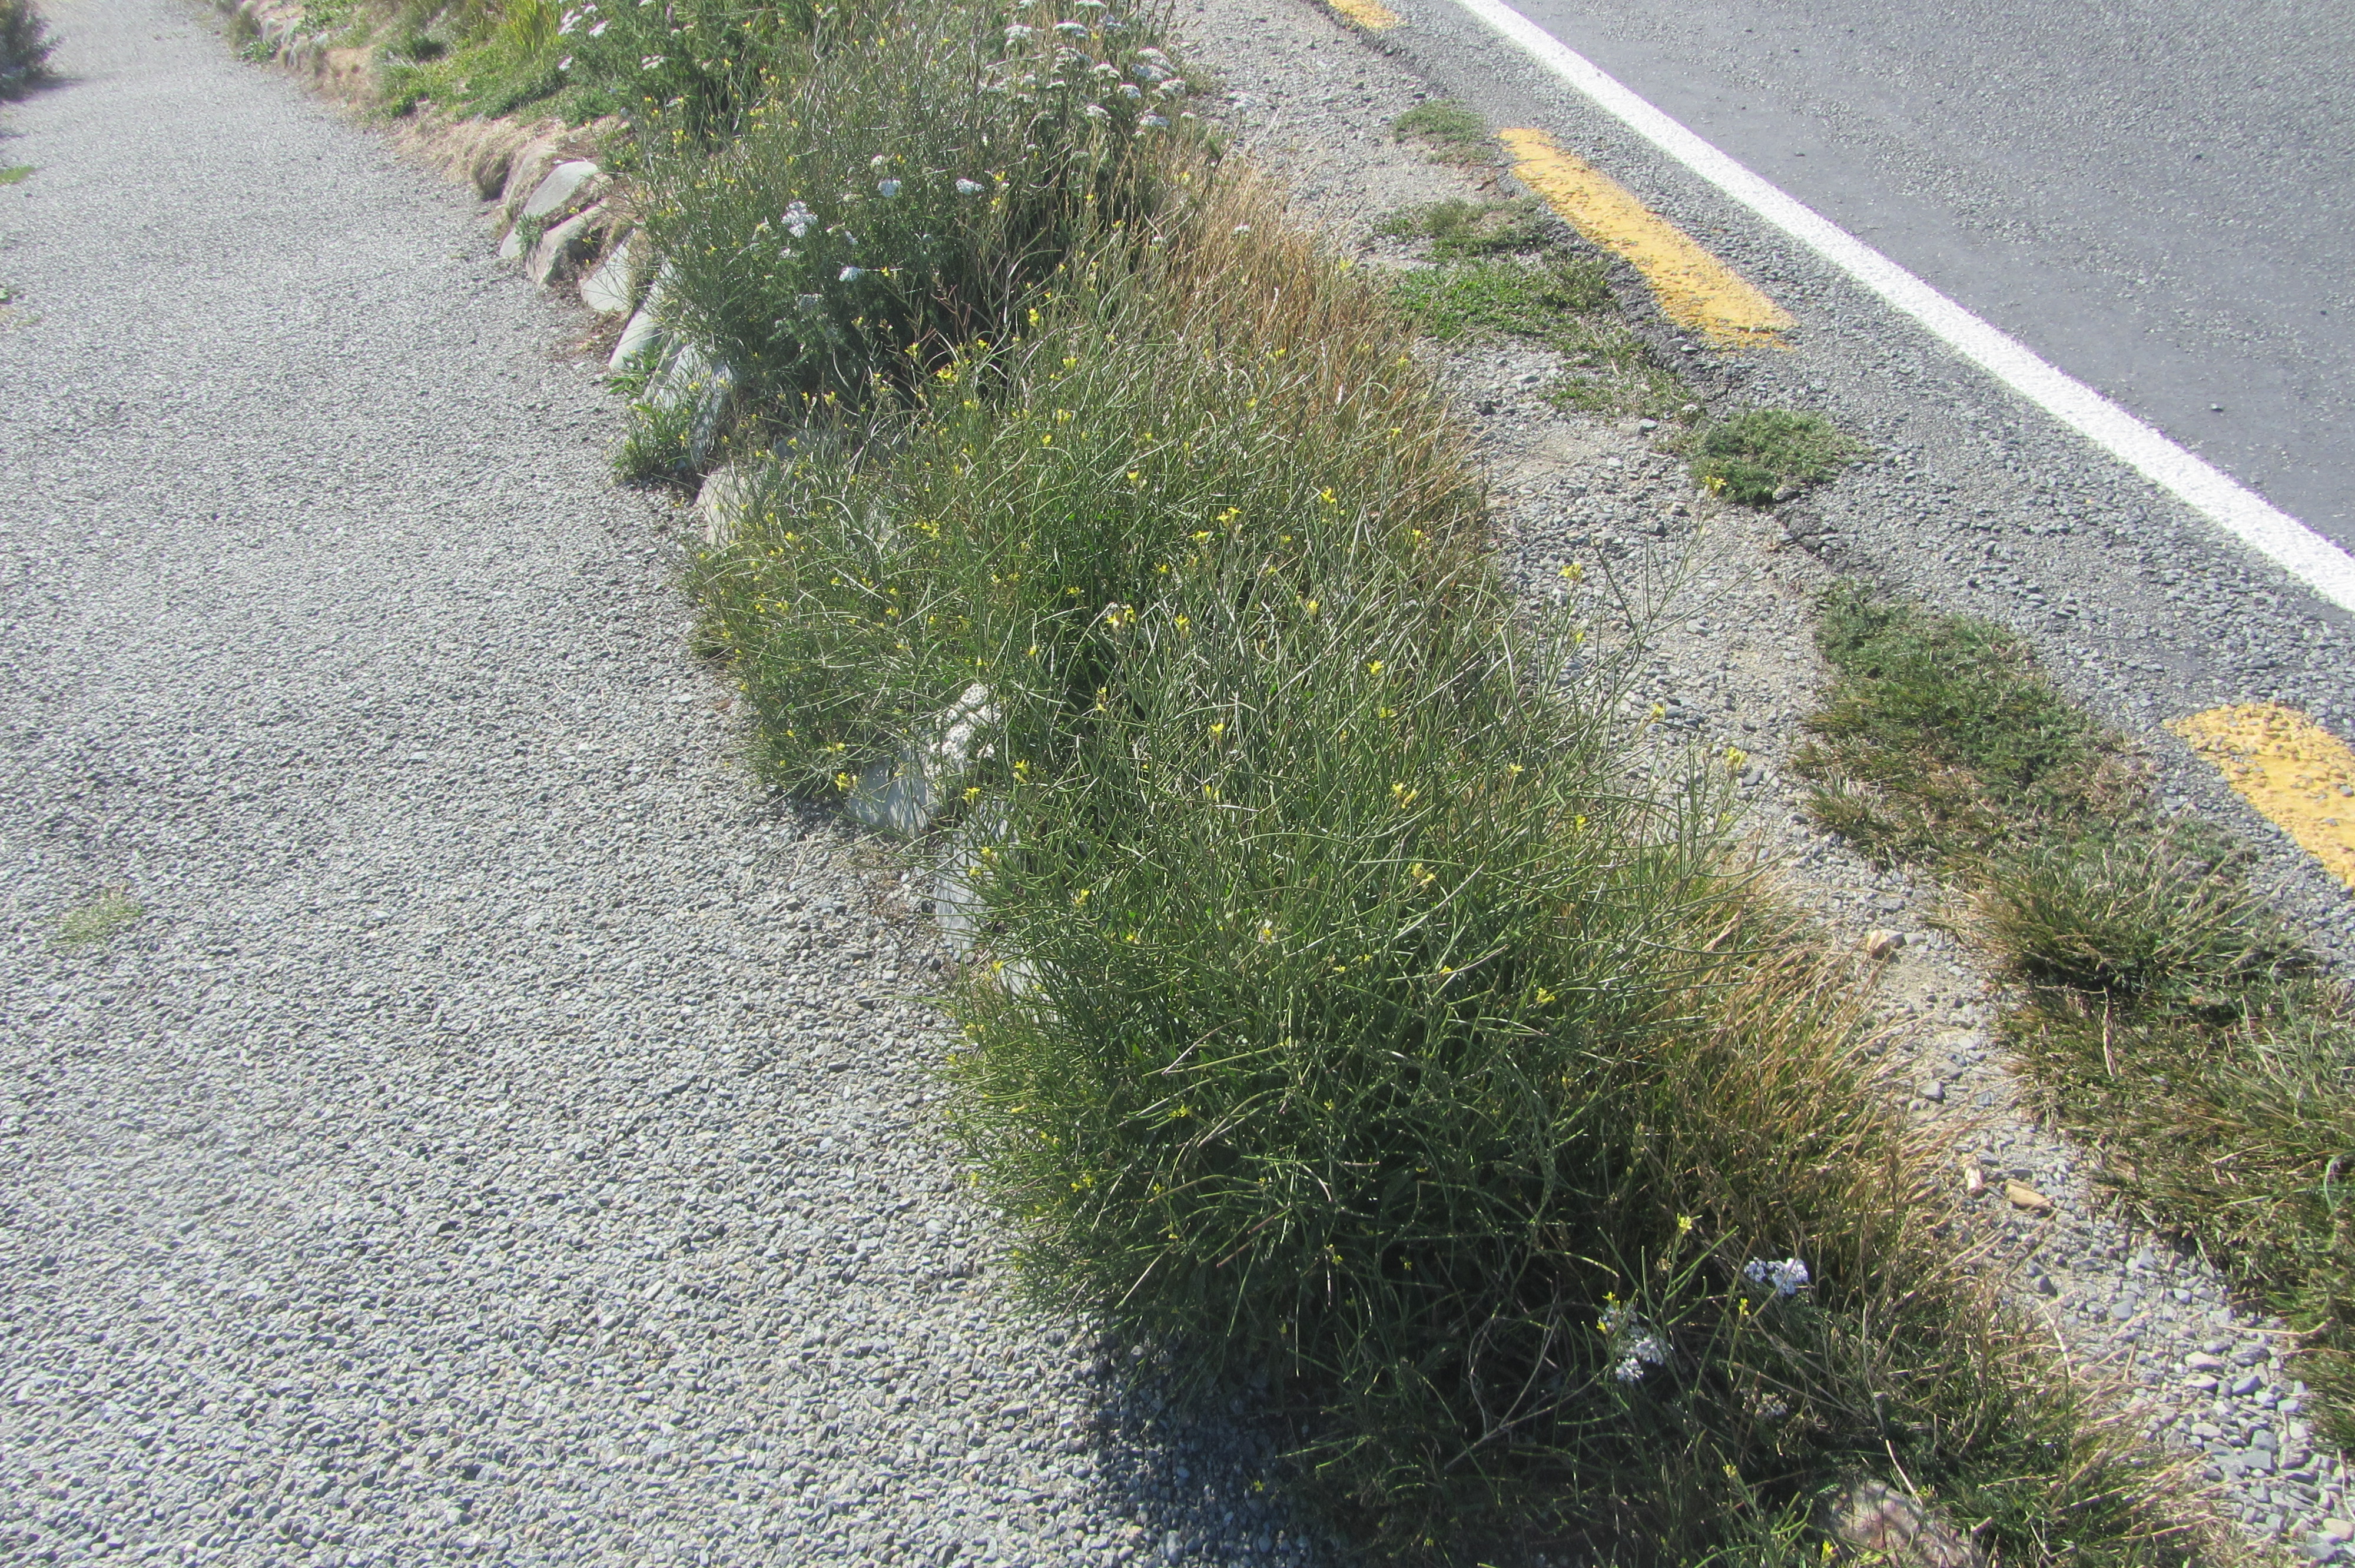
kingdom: Plantae
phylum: Tracheophyta
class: Magnoliopsida
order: Brassicales
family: Brassicaceae
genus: Sisymbrium
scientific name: Sisymbrium orientale
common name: Eastern rocket
